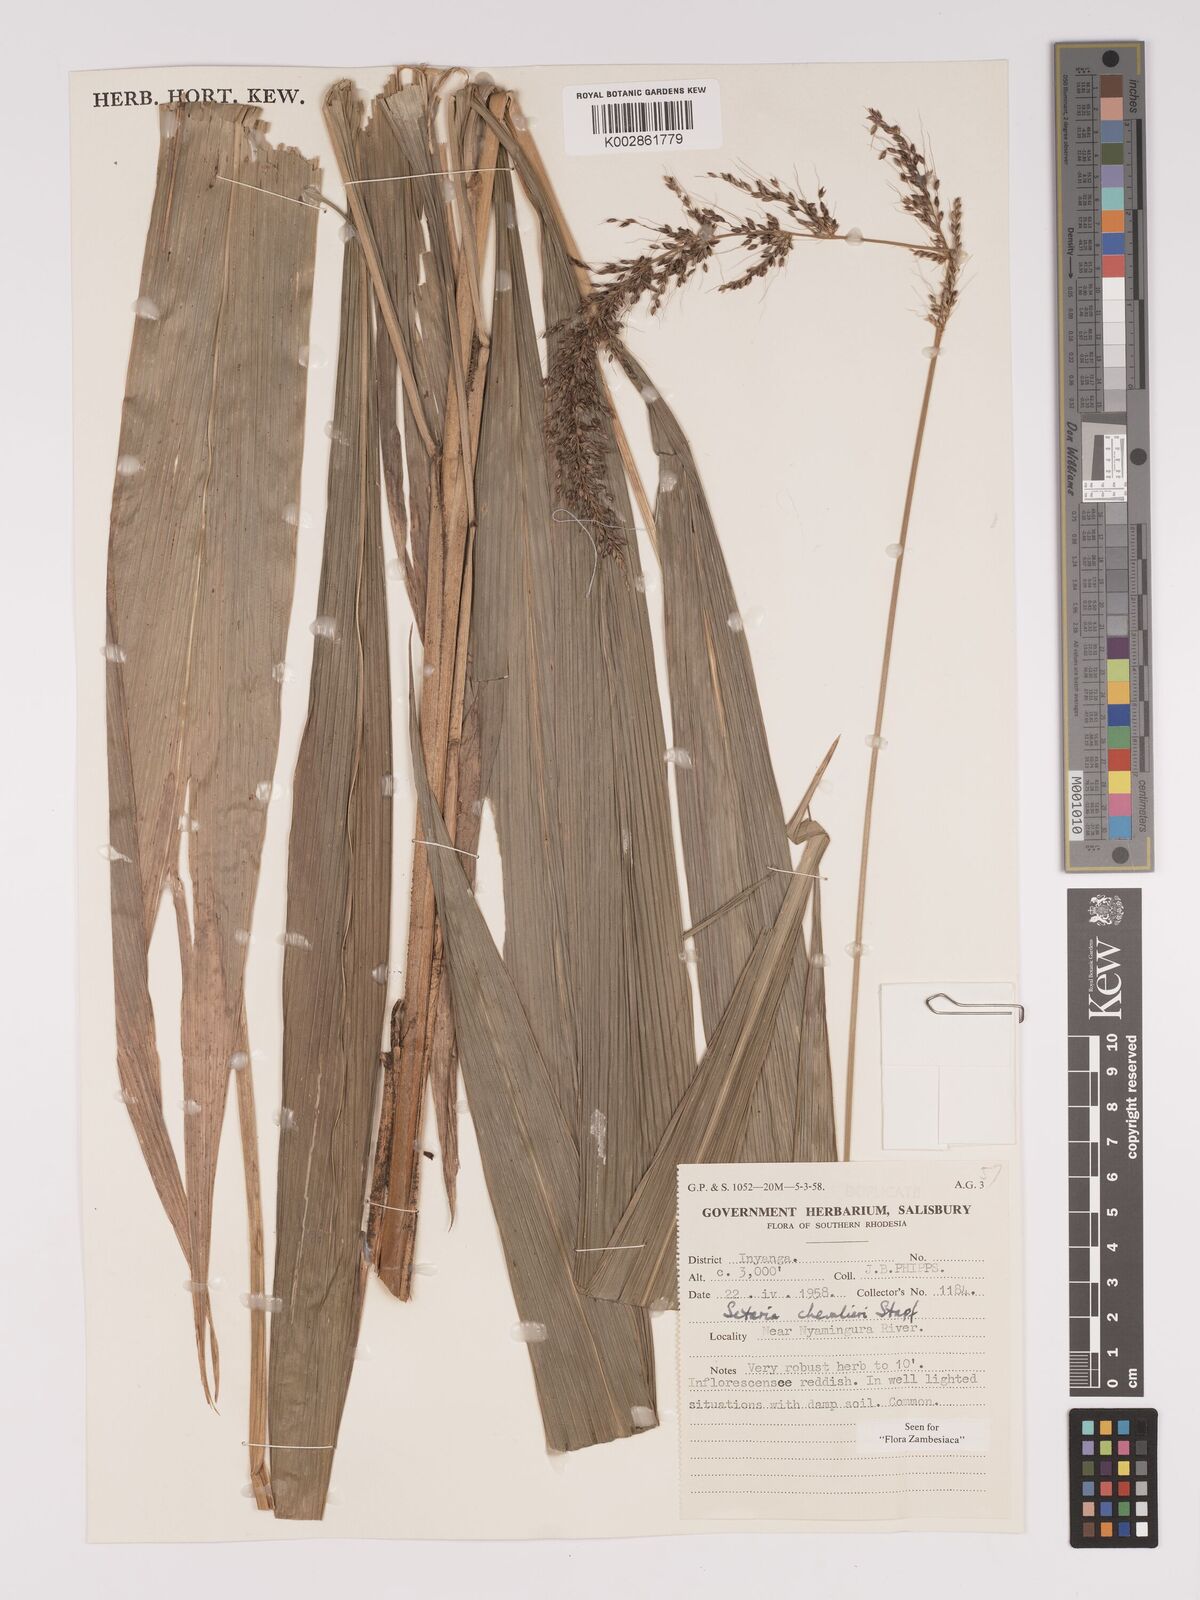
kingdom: Plantae
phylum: Tracheophyta
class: Liliopsida
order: Poales
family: Poaceae
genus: Setaria
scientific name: Setaria megaphylla
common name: Bigleaf bristlegrass
